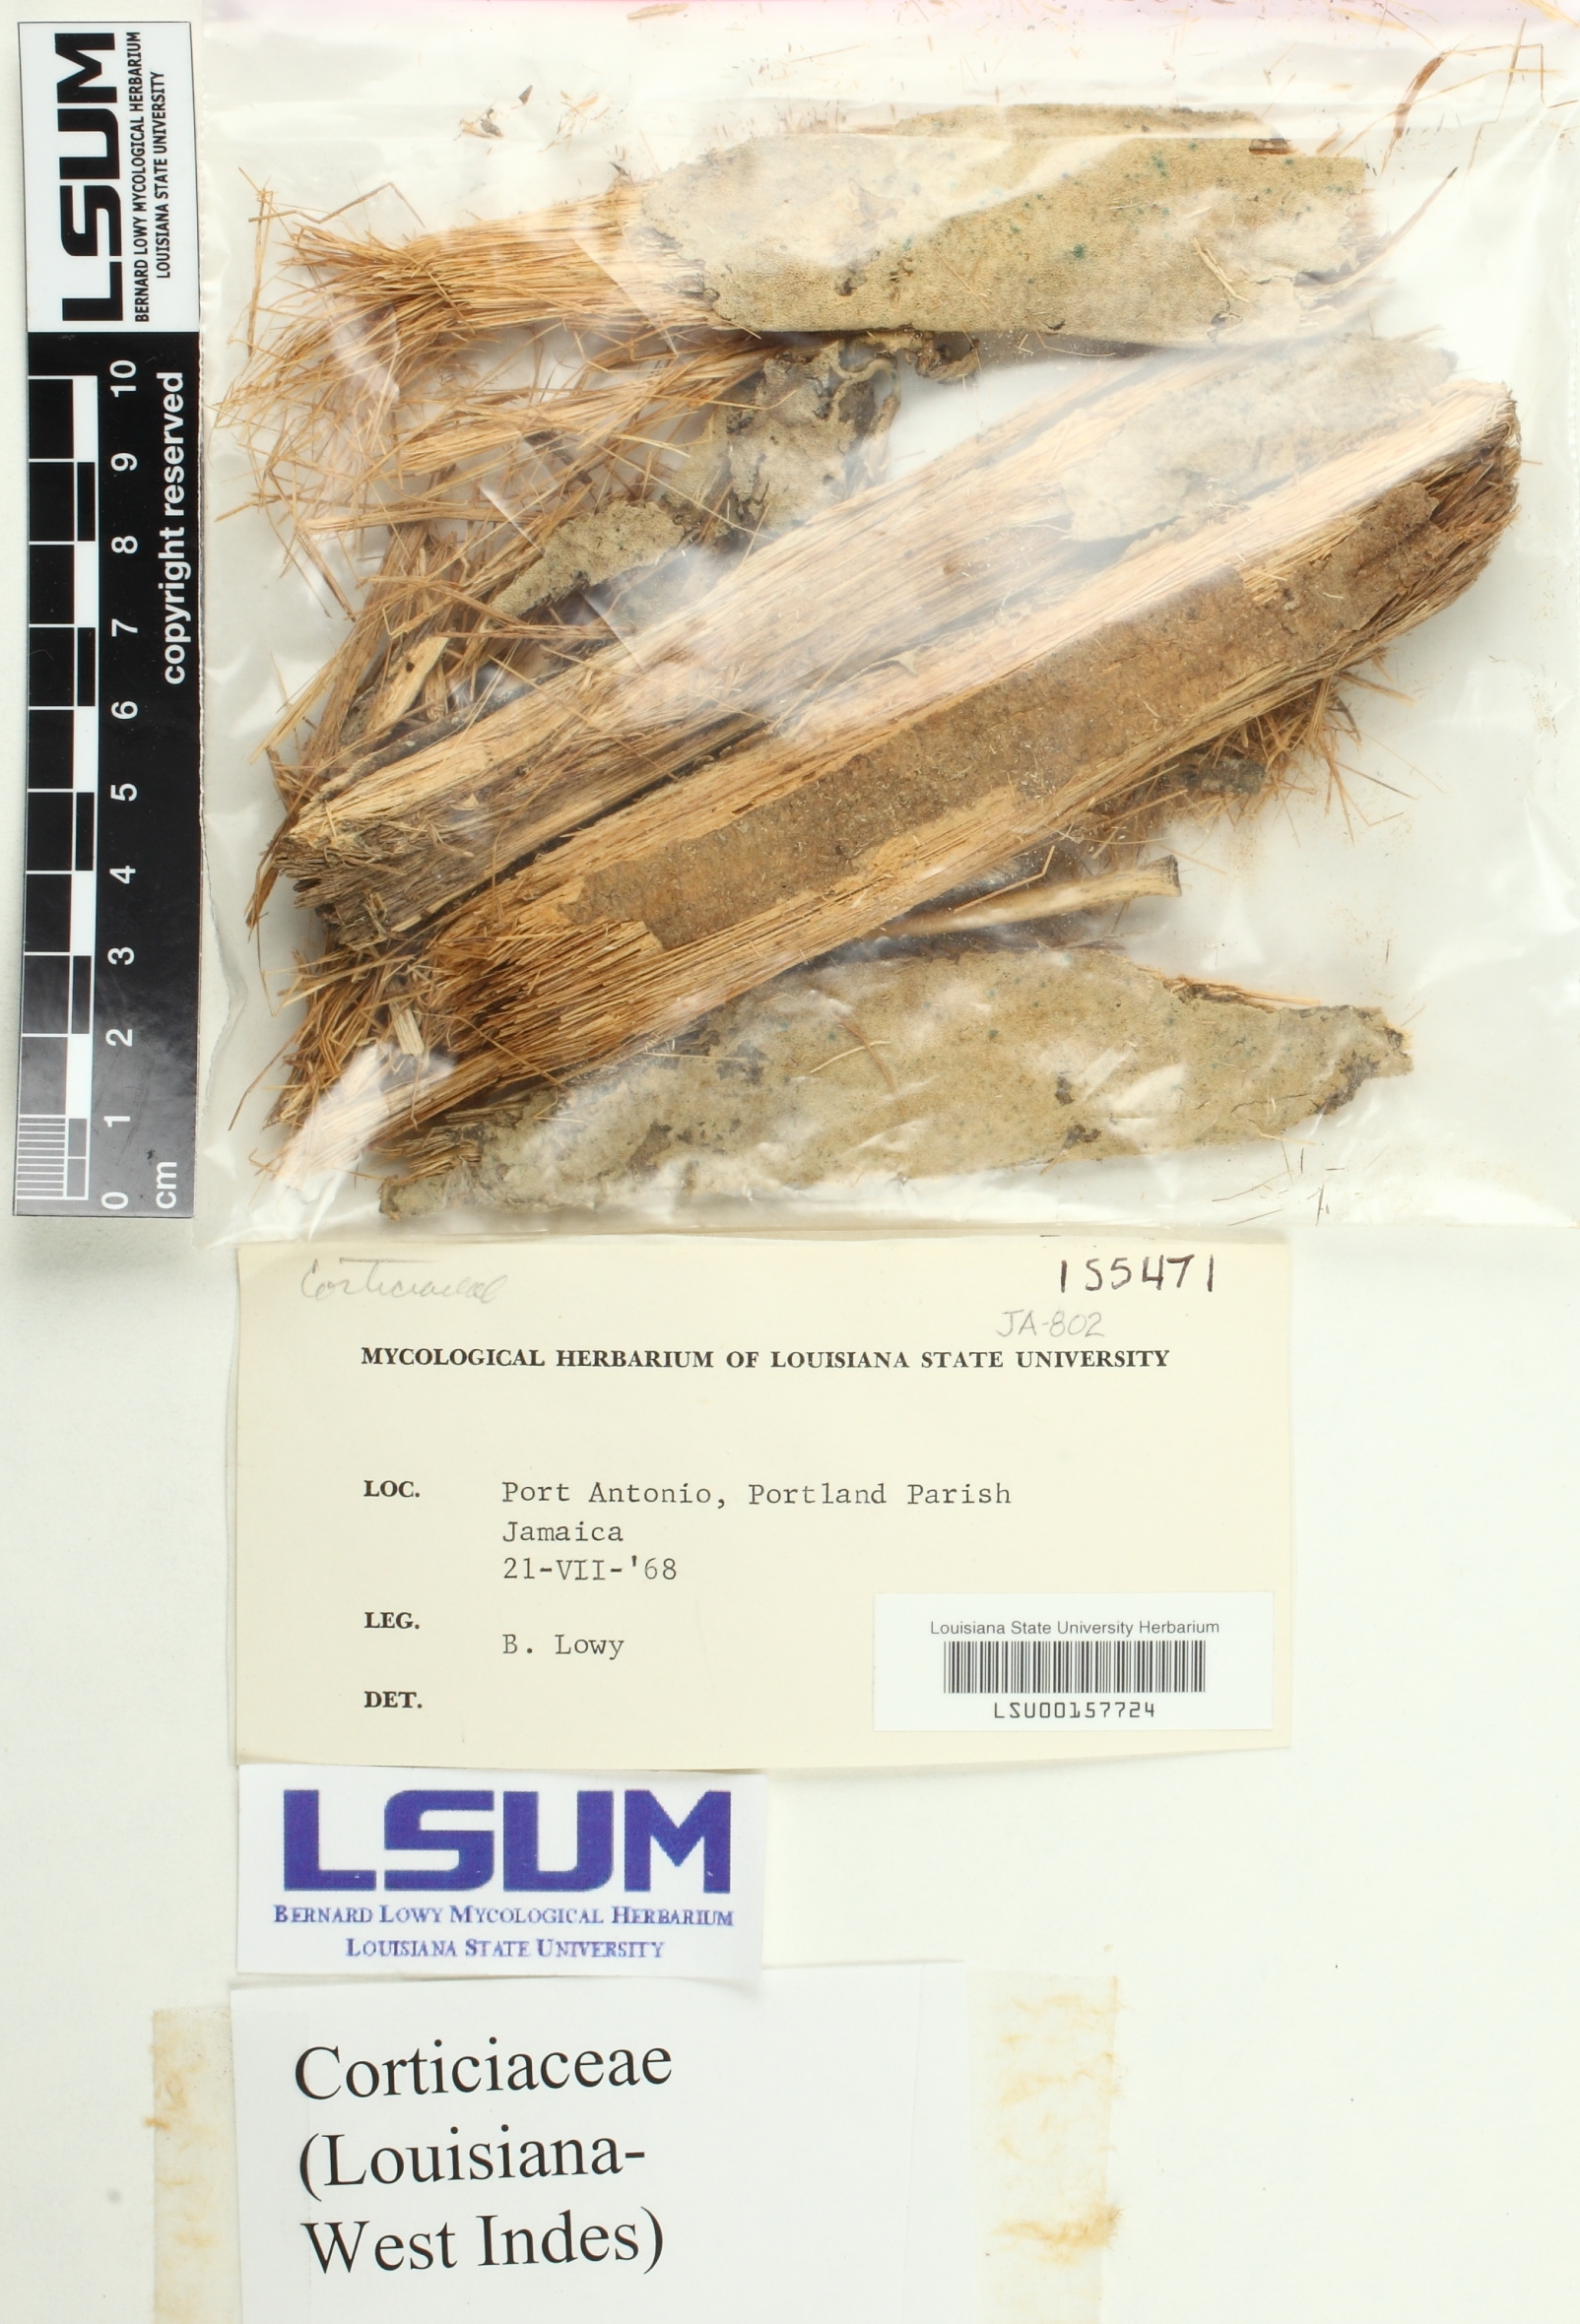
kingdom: Fungi
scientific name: Fungi
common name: Fungi
